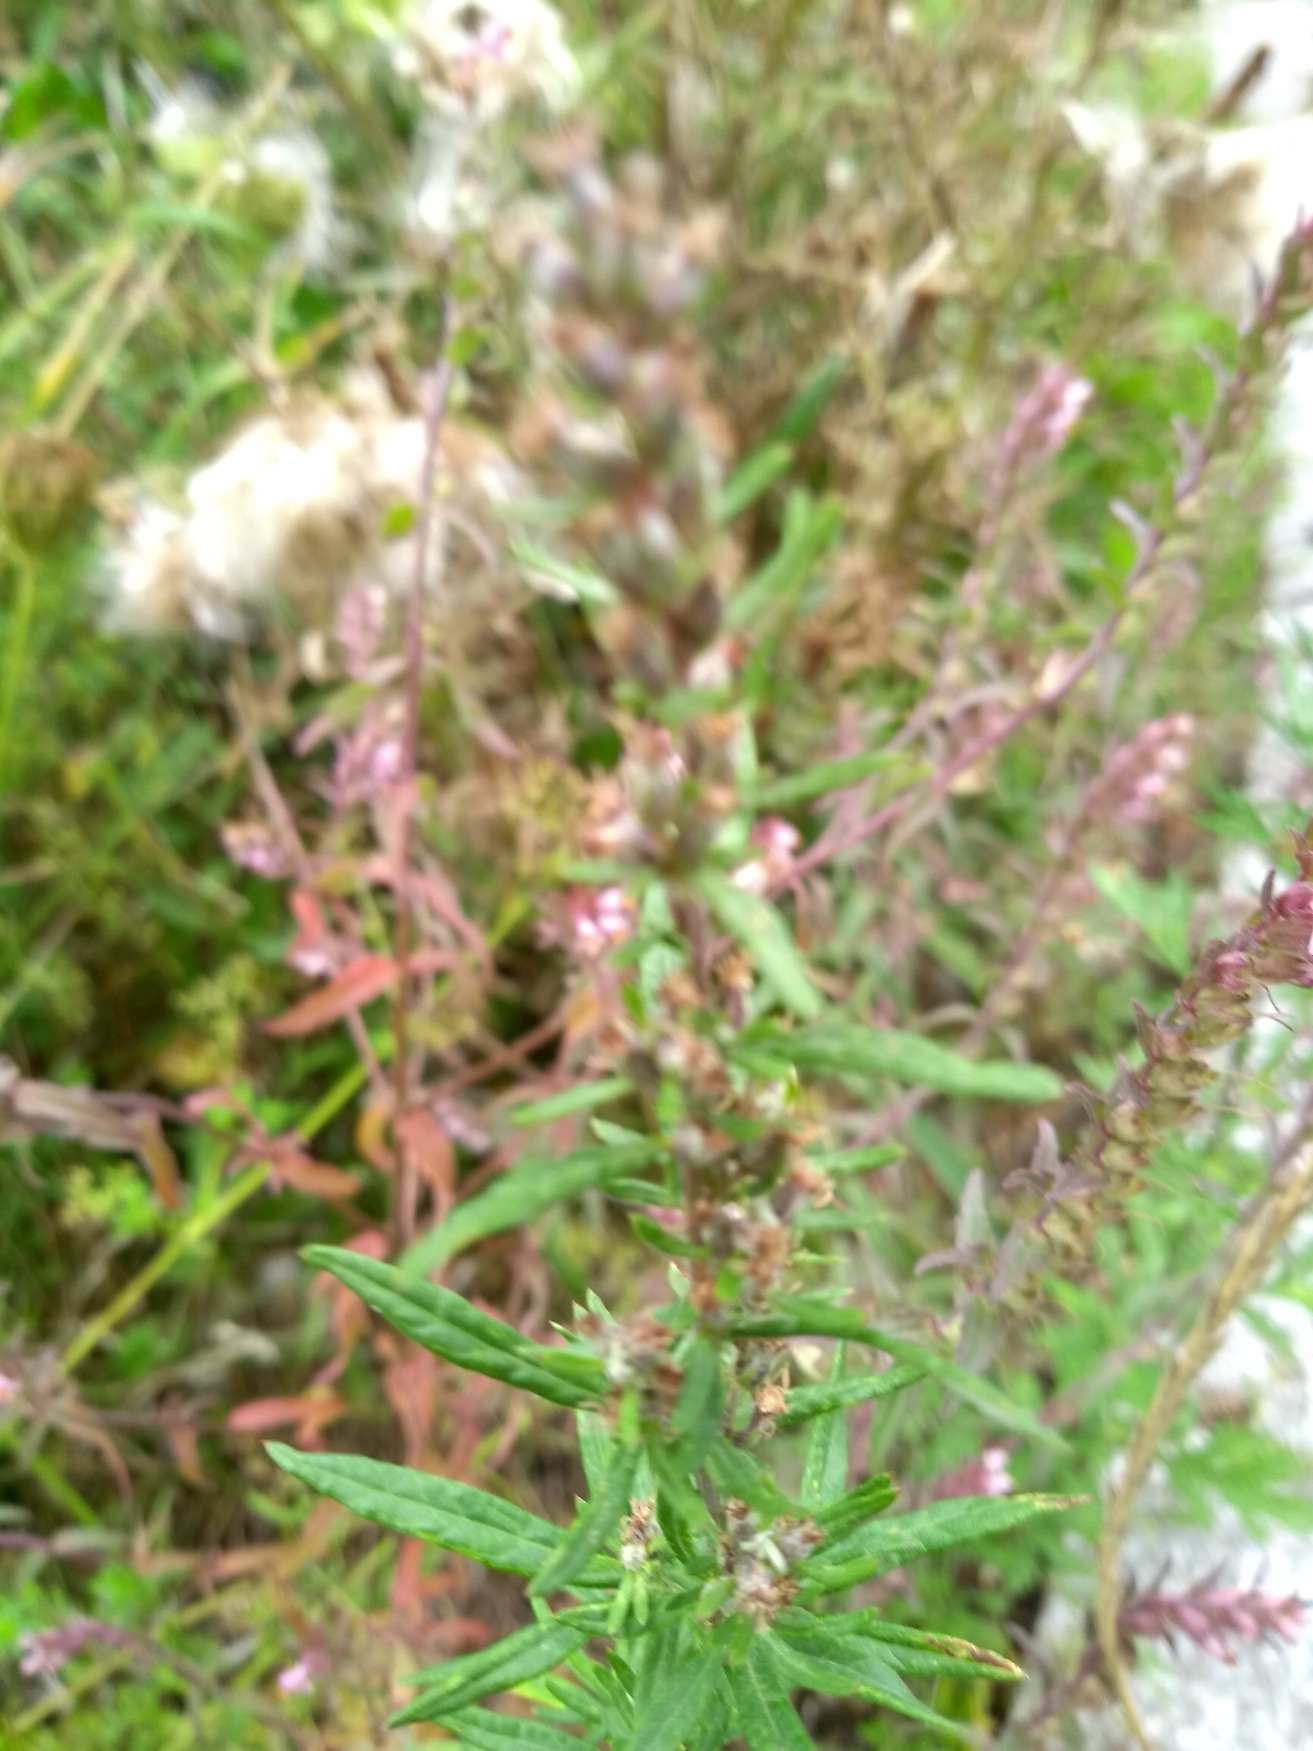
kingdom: Plantae
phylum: Tracheophyta
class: Magnoliopsida
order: Asterales
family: Asteraceae
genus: Artemisia
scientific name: Artemisia vulgaris
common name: Grå-bynke
